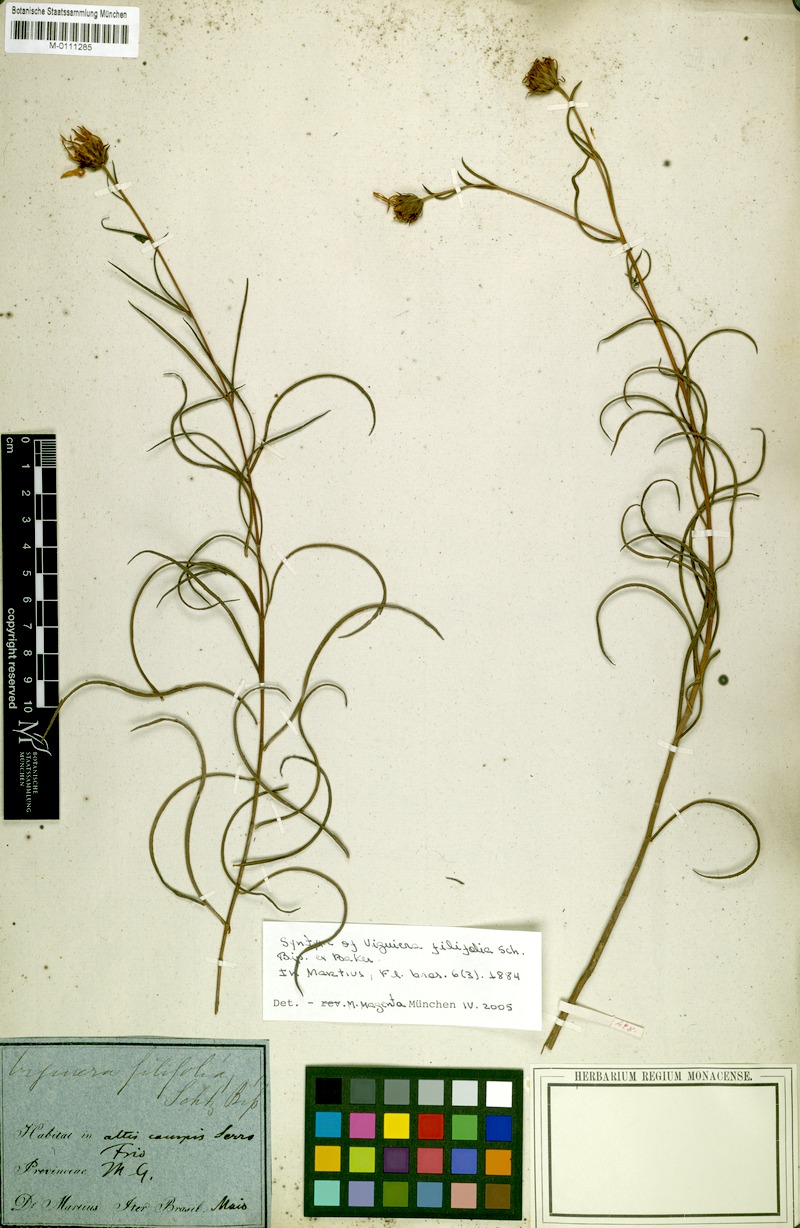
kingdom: Plantae
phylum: Tracheophyta
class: Magnoliopsida
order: Asterales
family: Asteraceae
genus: Aldama
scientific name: Aldama filifolia
